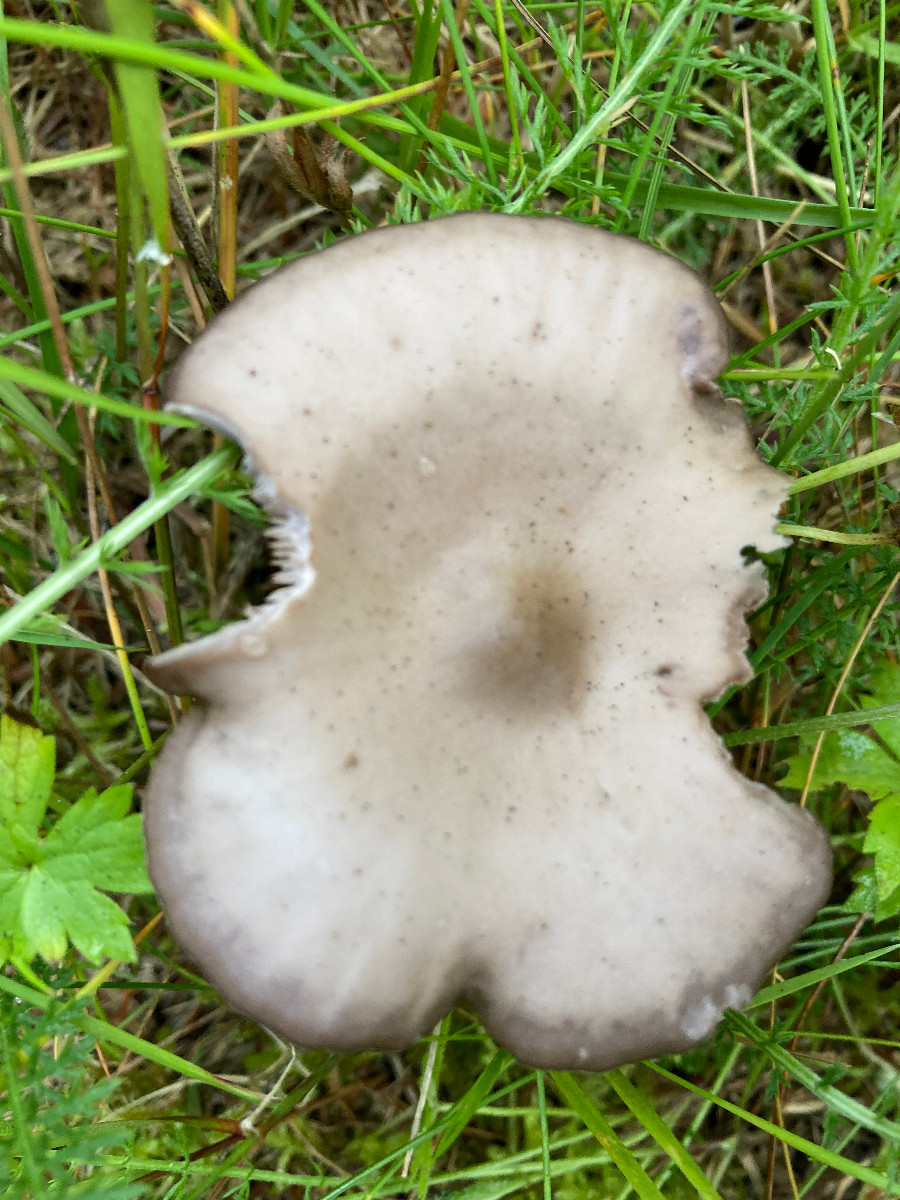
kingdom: Fungi
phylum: Basidiomycota
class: Agaricomycetes
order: Agaricales
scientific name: Agaricales
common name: champignonordenen
